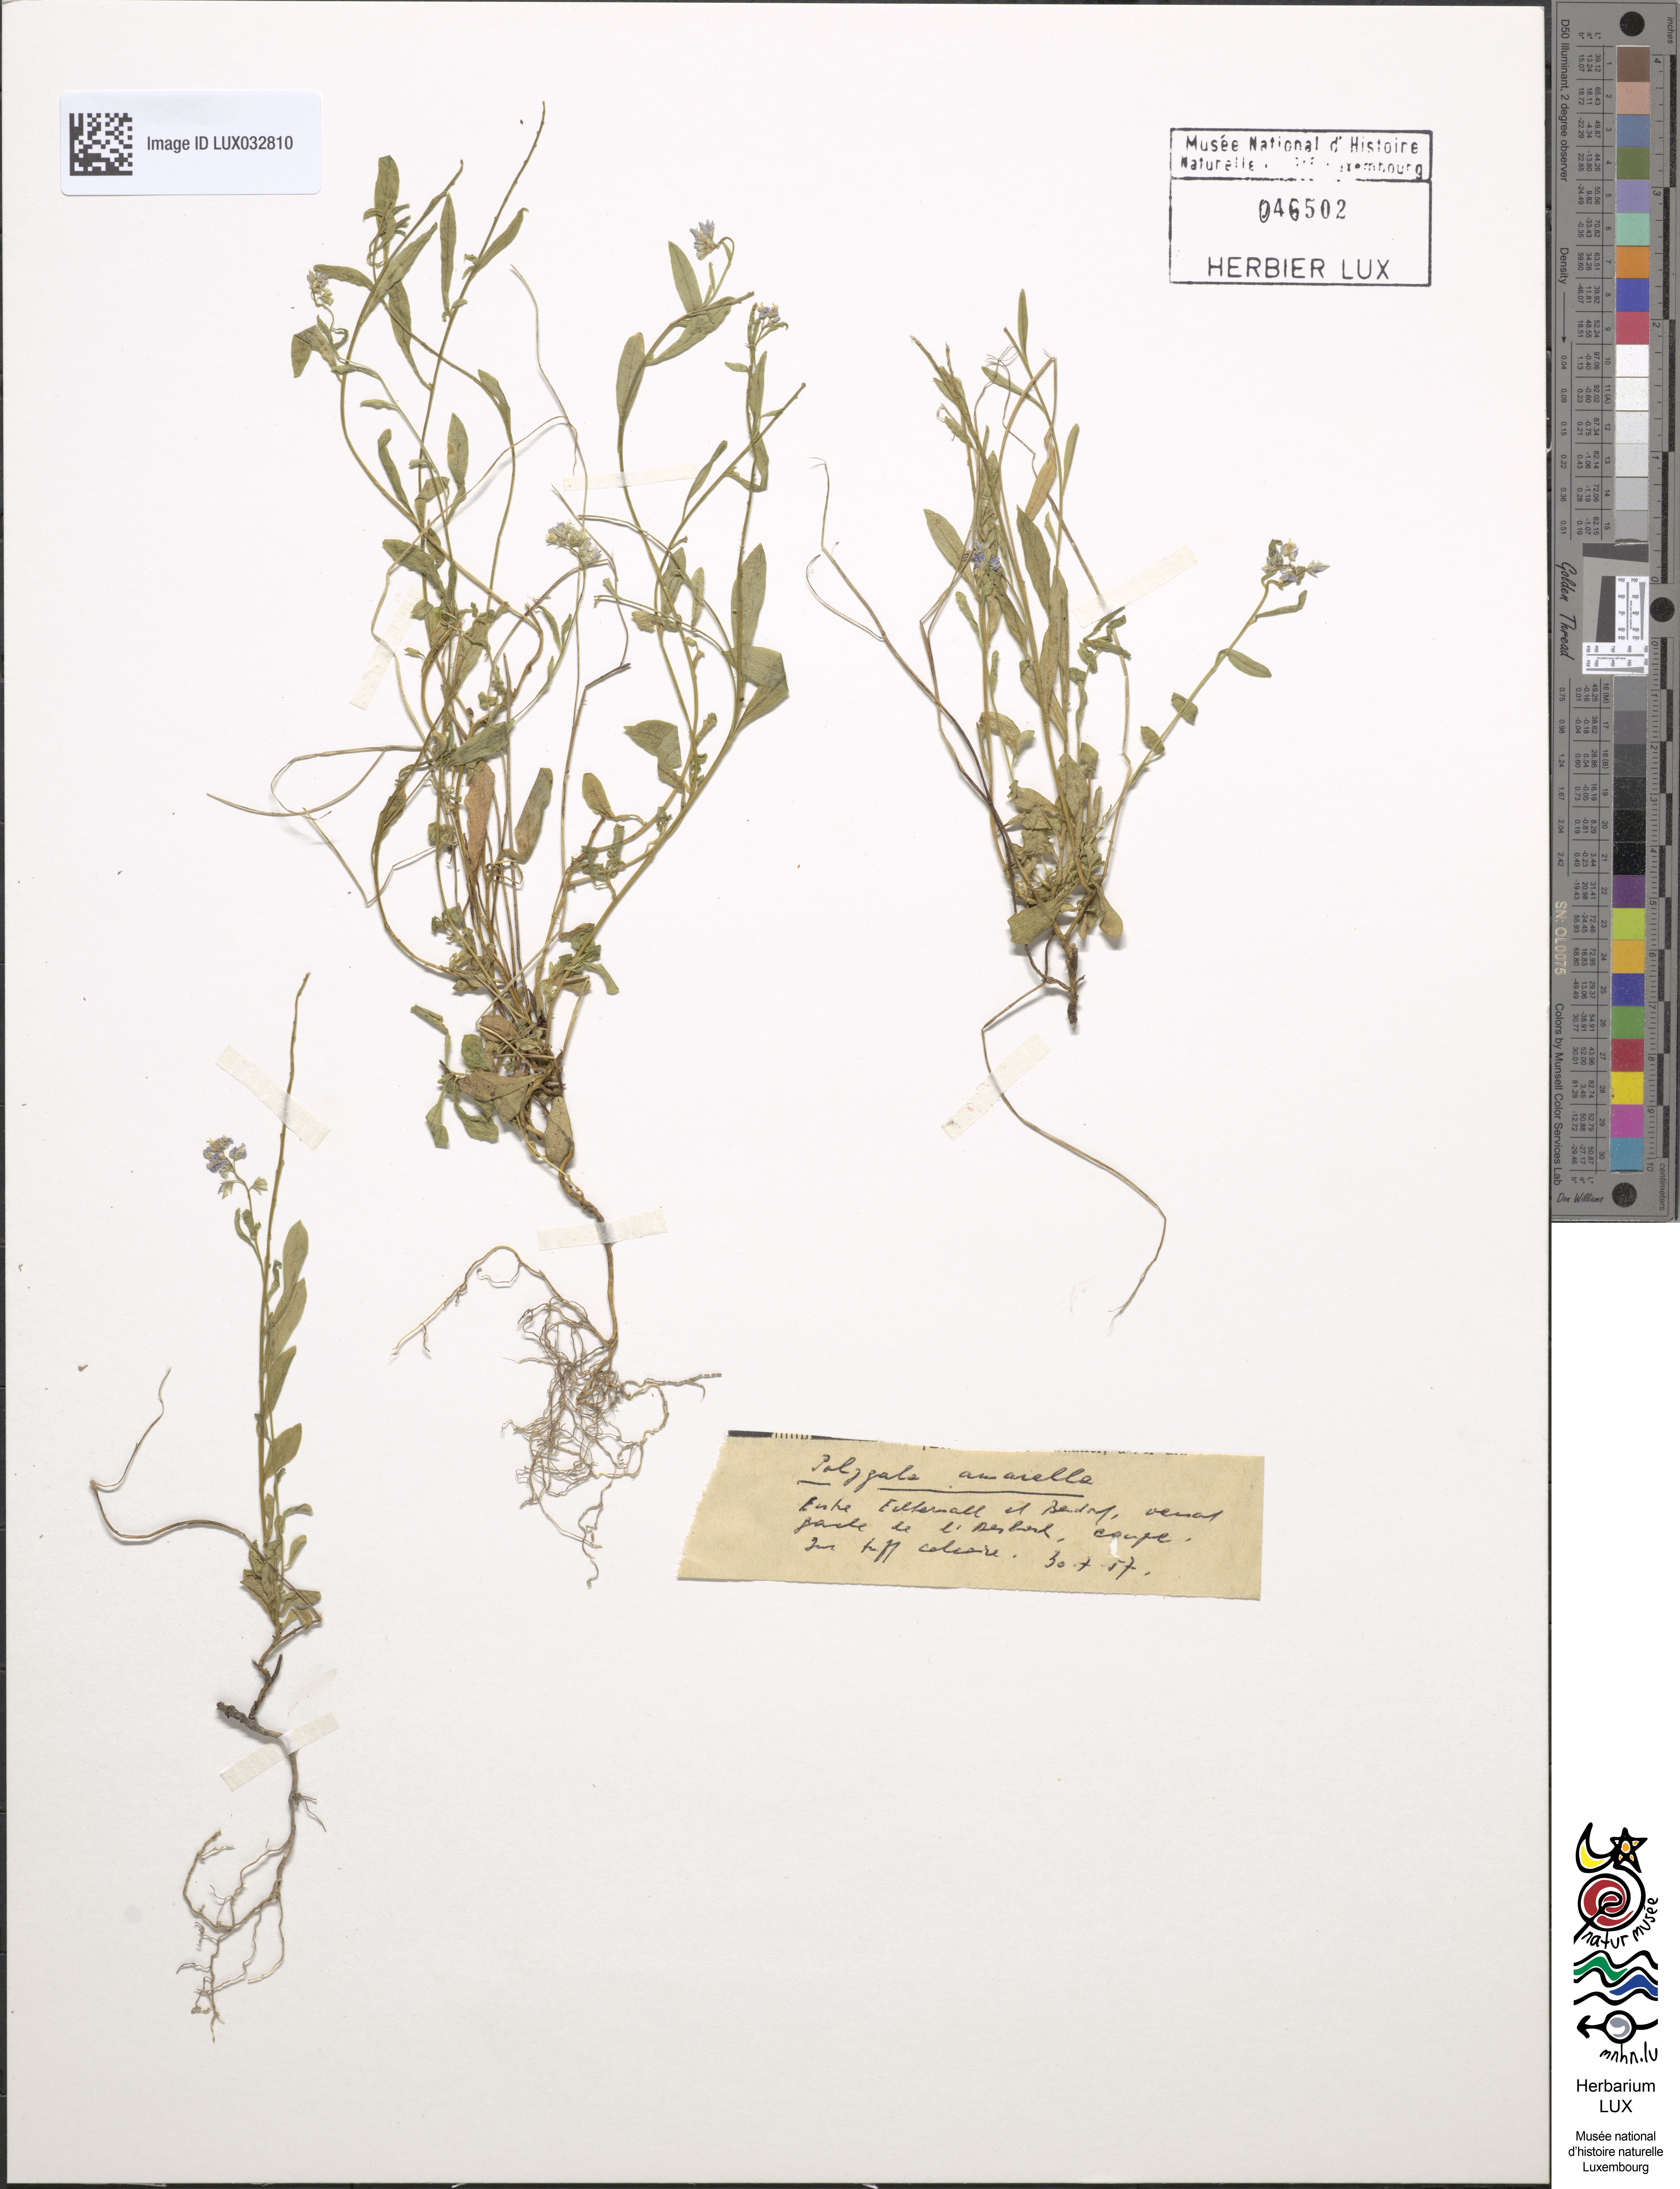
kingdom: Plantae
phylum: Tracheophyta
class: Magnoliopsida
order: Fabales
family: Polygalaceae
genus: Polygala
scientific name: Polygala amarella
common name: Dwarf milkwort
